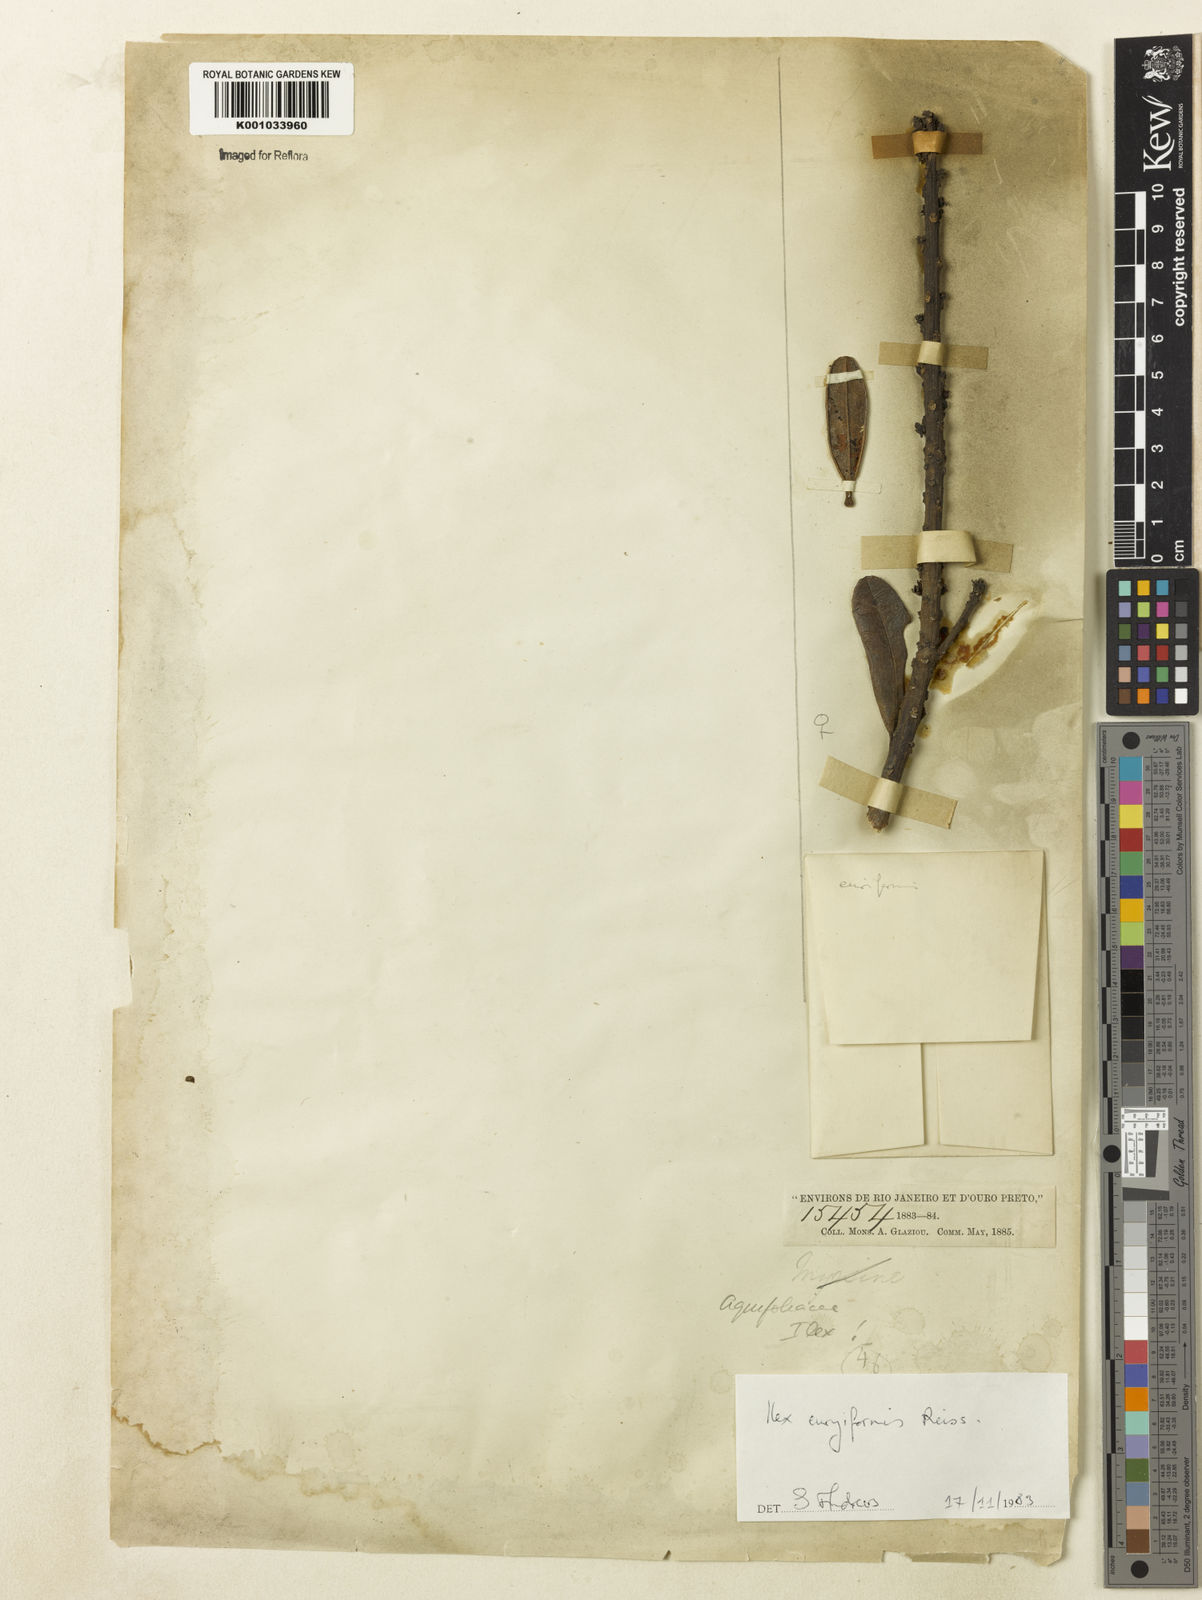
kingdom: Plantae
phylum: Tracheophyta
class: Magnoliopsida
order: Aquifoliales
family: Aquifoliaceae
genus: Ilex
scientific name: Ilex euryiformis
